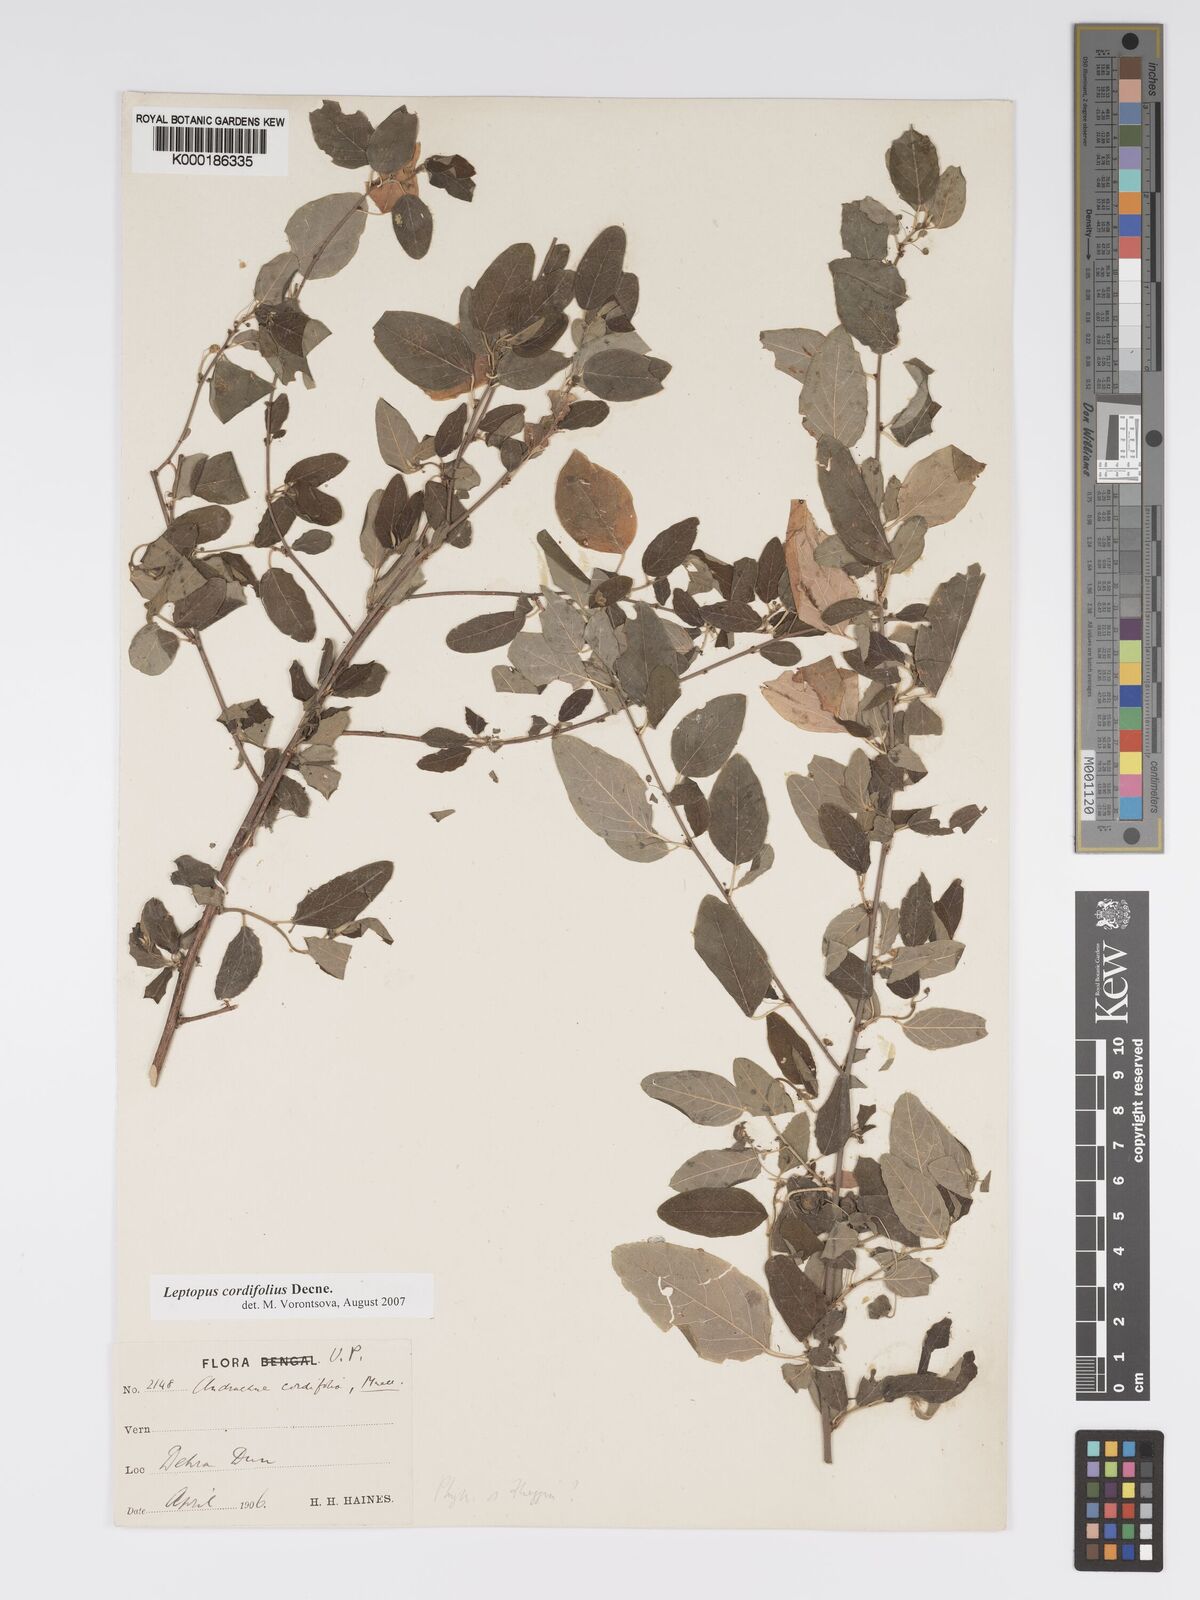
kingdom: Plantae
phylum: Tracheophyta
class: Magnoliopsida
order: Malpighiales
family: Phyllanthaceae
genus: Leptopus
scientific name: Leptopus cordifolius
